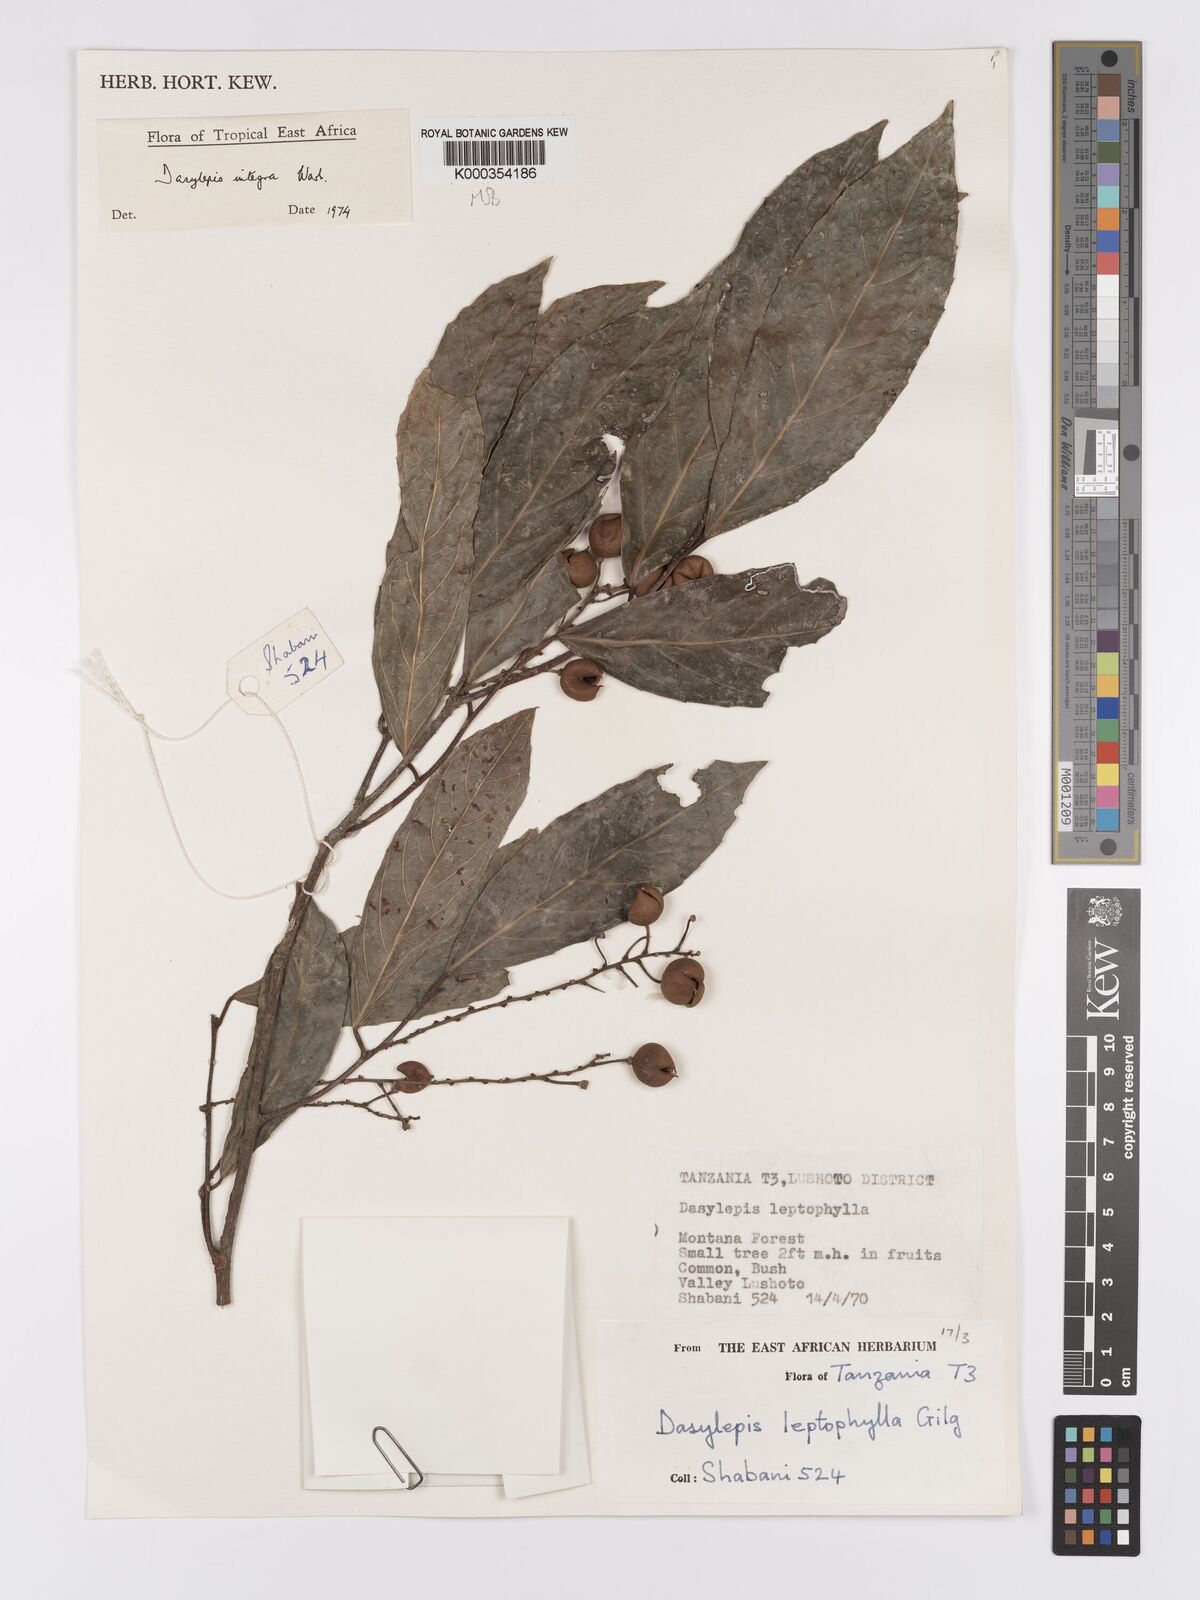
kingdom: Plantae
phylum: Tracheophyta
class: Magnoliopsida
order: Malpighiales
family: Achariaceae
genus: Dasylepis
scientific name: Dasylepis integra
